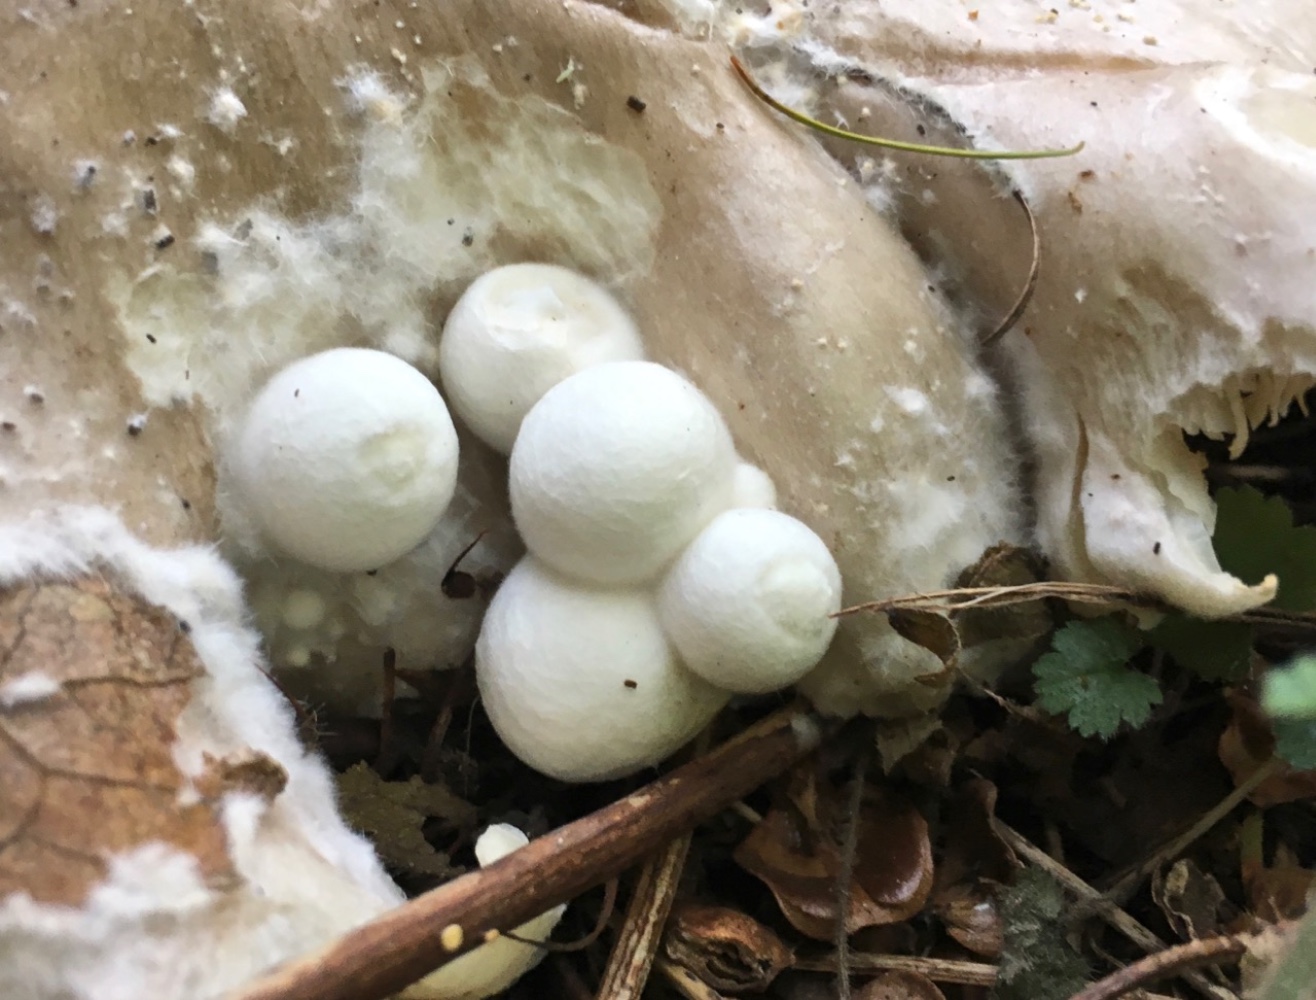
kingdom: Fungi
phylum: Basidiomycota
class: Agaricomycetes
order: Agaricales
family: Pluteaceae
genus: Volvariella
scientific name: Volvariella surrecta
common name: snyltende posesvamp
